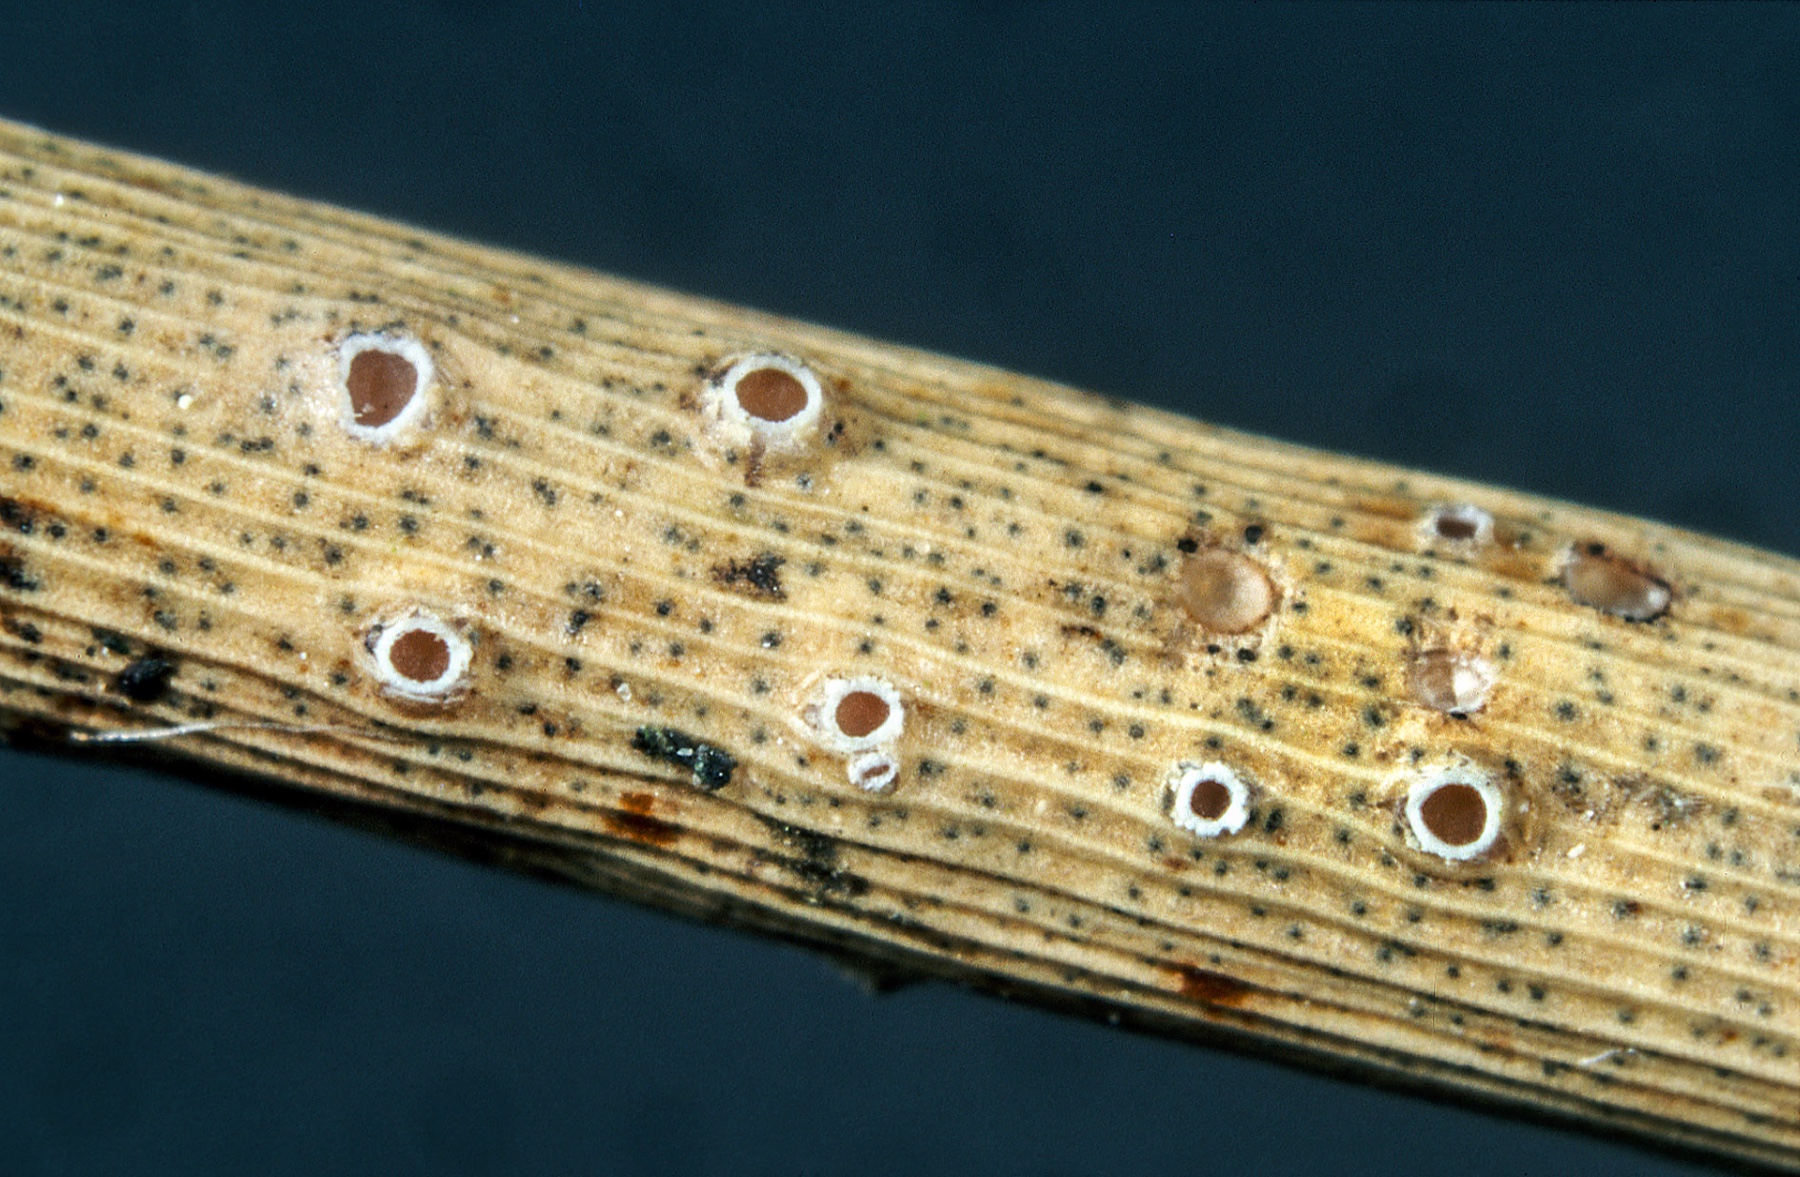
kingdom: Fungi
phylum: Ascomycota
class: Lecanoromycetes
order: Ostropales
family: Stictidaceae
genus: Stictis
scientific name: Stictis
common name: barkhul
